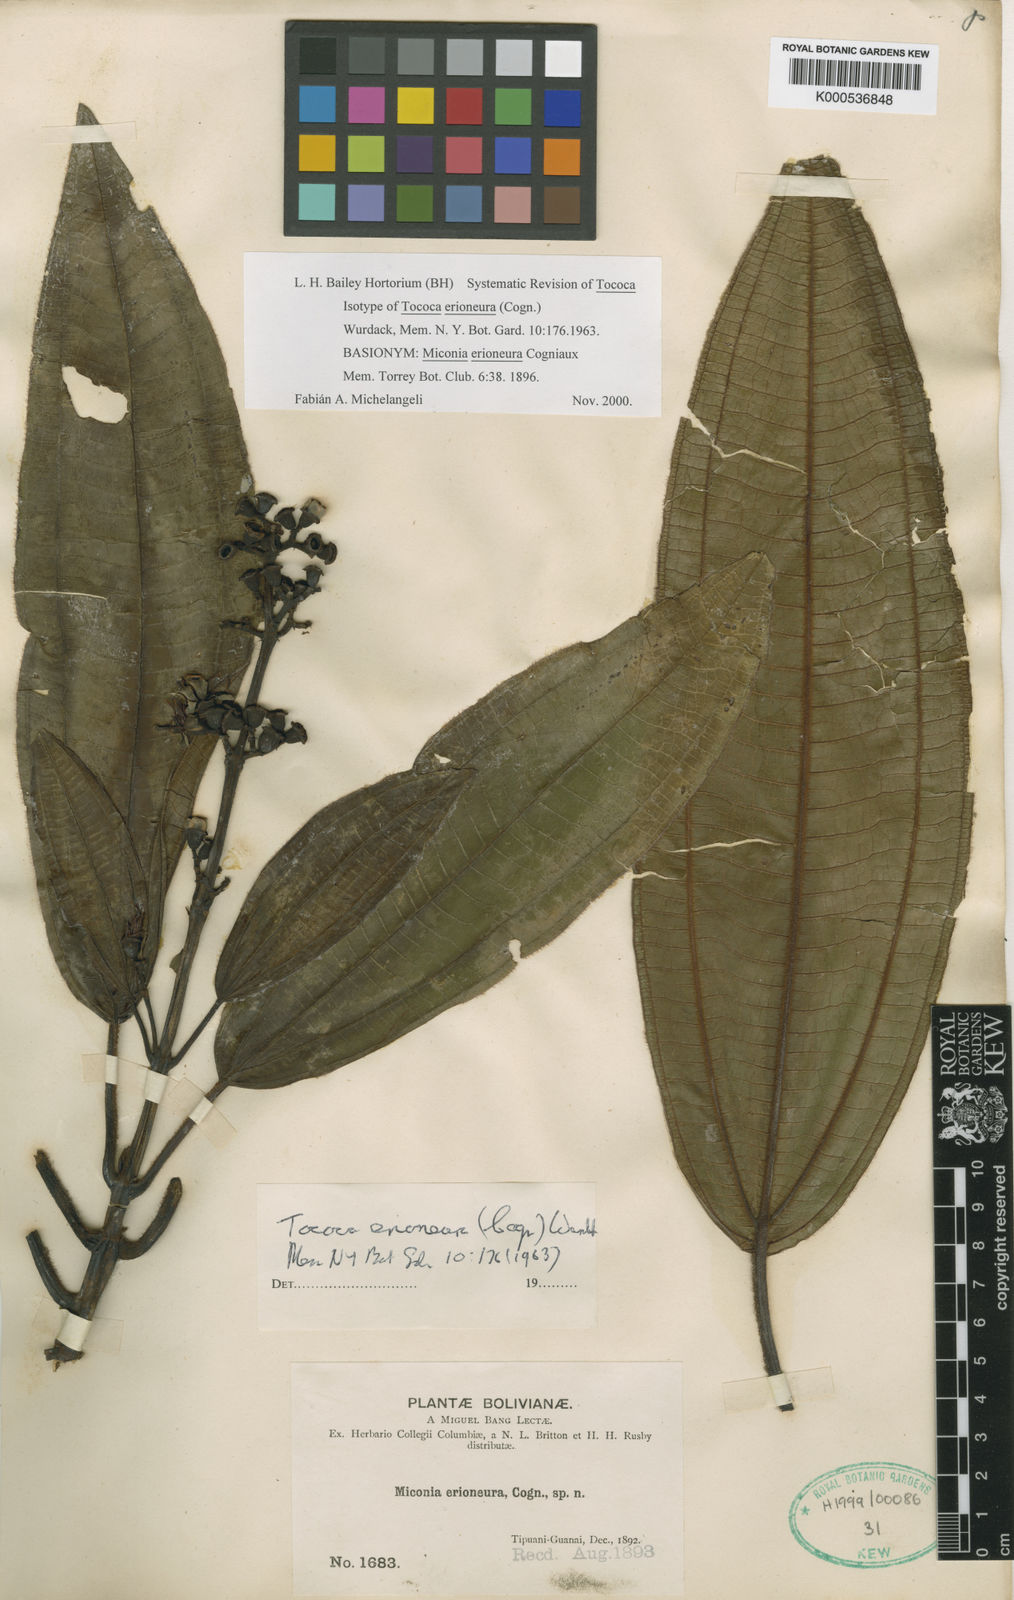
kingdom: Plantae
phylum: Tracheophyta
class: Magnoliopsida
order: Myrtales
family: Melastomataceae
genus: Miconia
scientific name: Miconia erioneura
